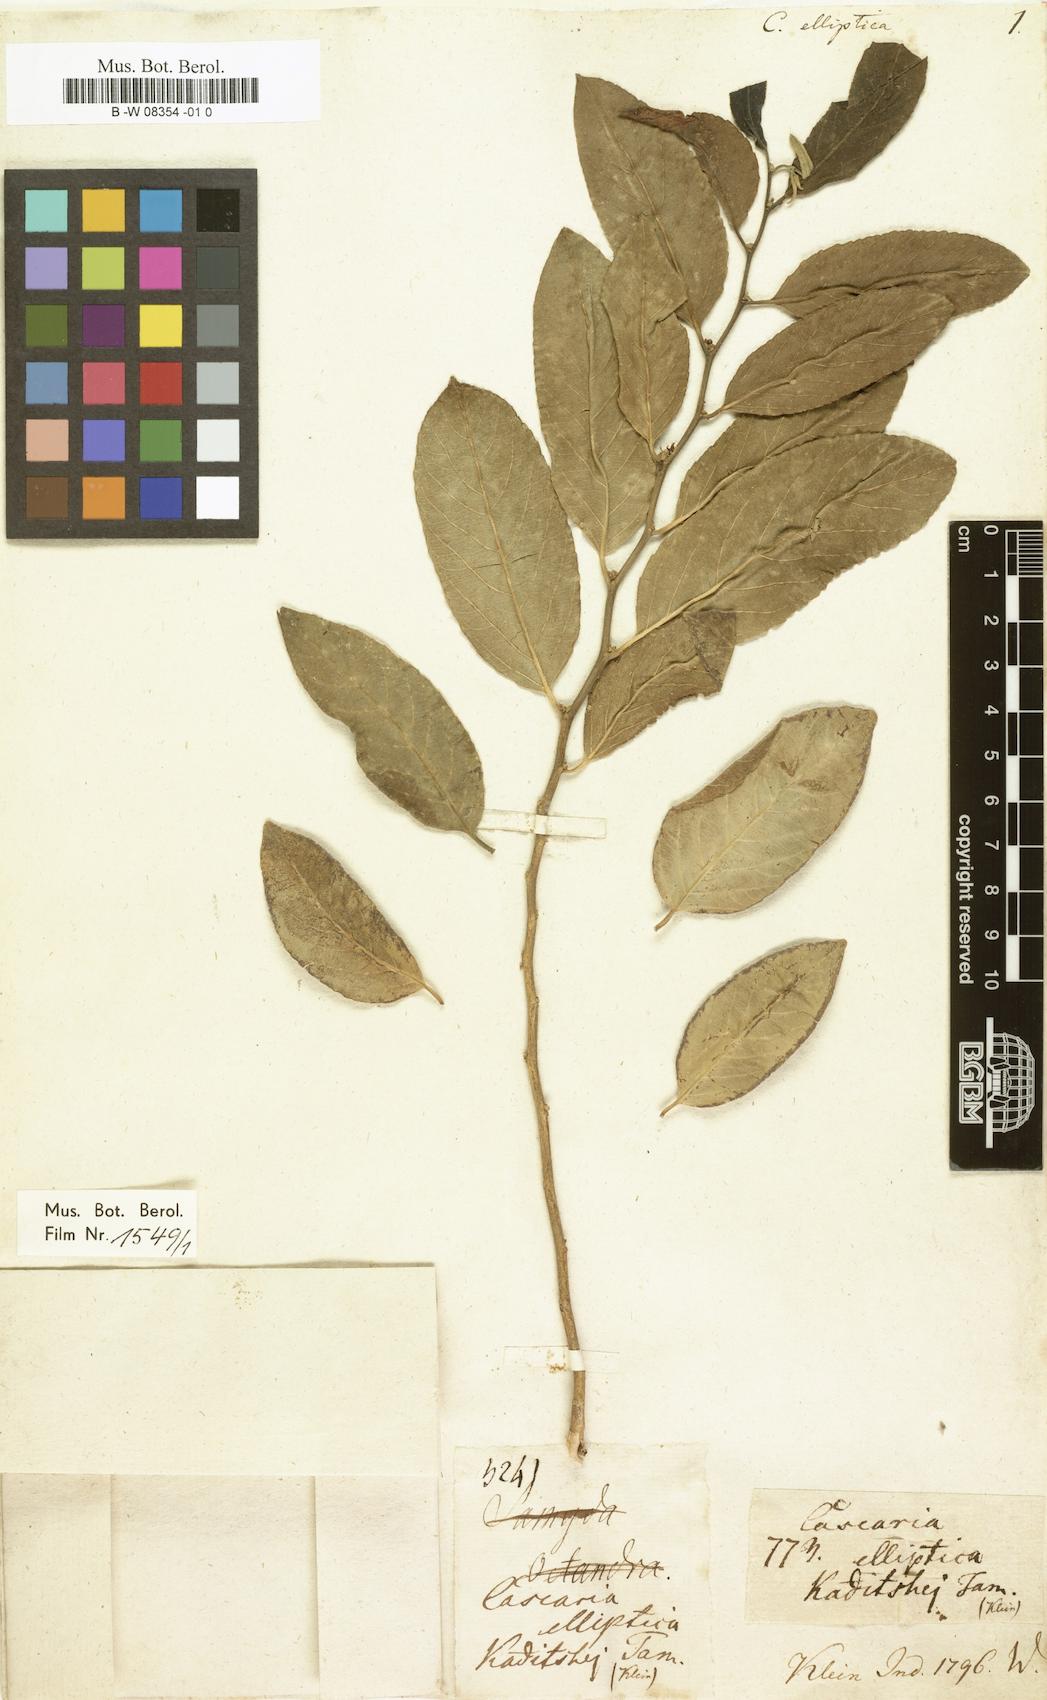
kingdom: Plantae
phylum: Tracheophyta
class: Magnoliopsida
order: Malpighiales
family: Salicaceae
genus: Casearia
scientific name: Casearia elliptica
